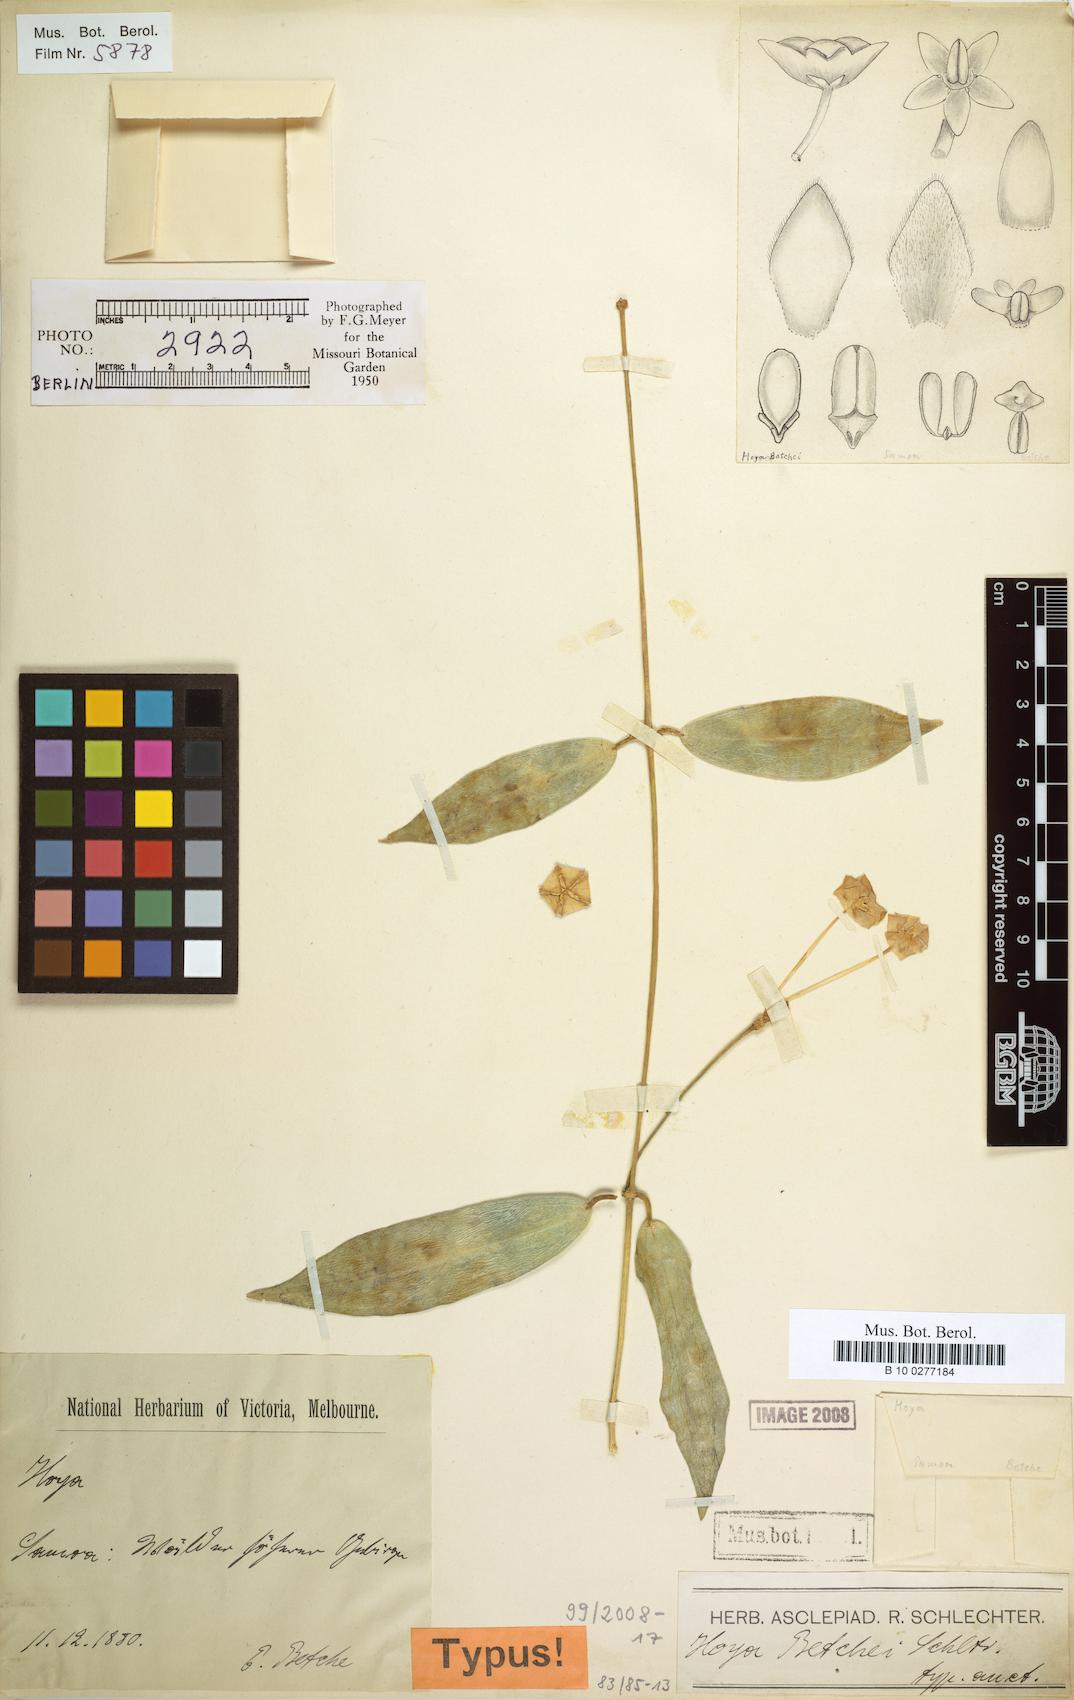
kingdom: Plantae
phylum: Tracheophyta
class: Magnoliopsida
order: Gentianales
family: Apocynaceae
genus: Hoya
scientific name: Hoya betchei
